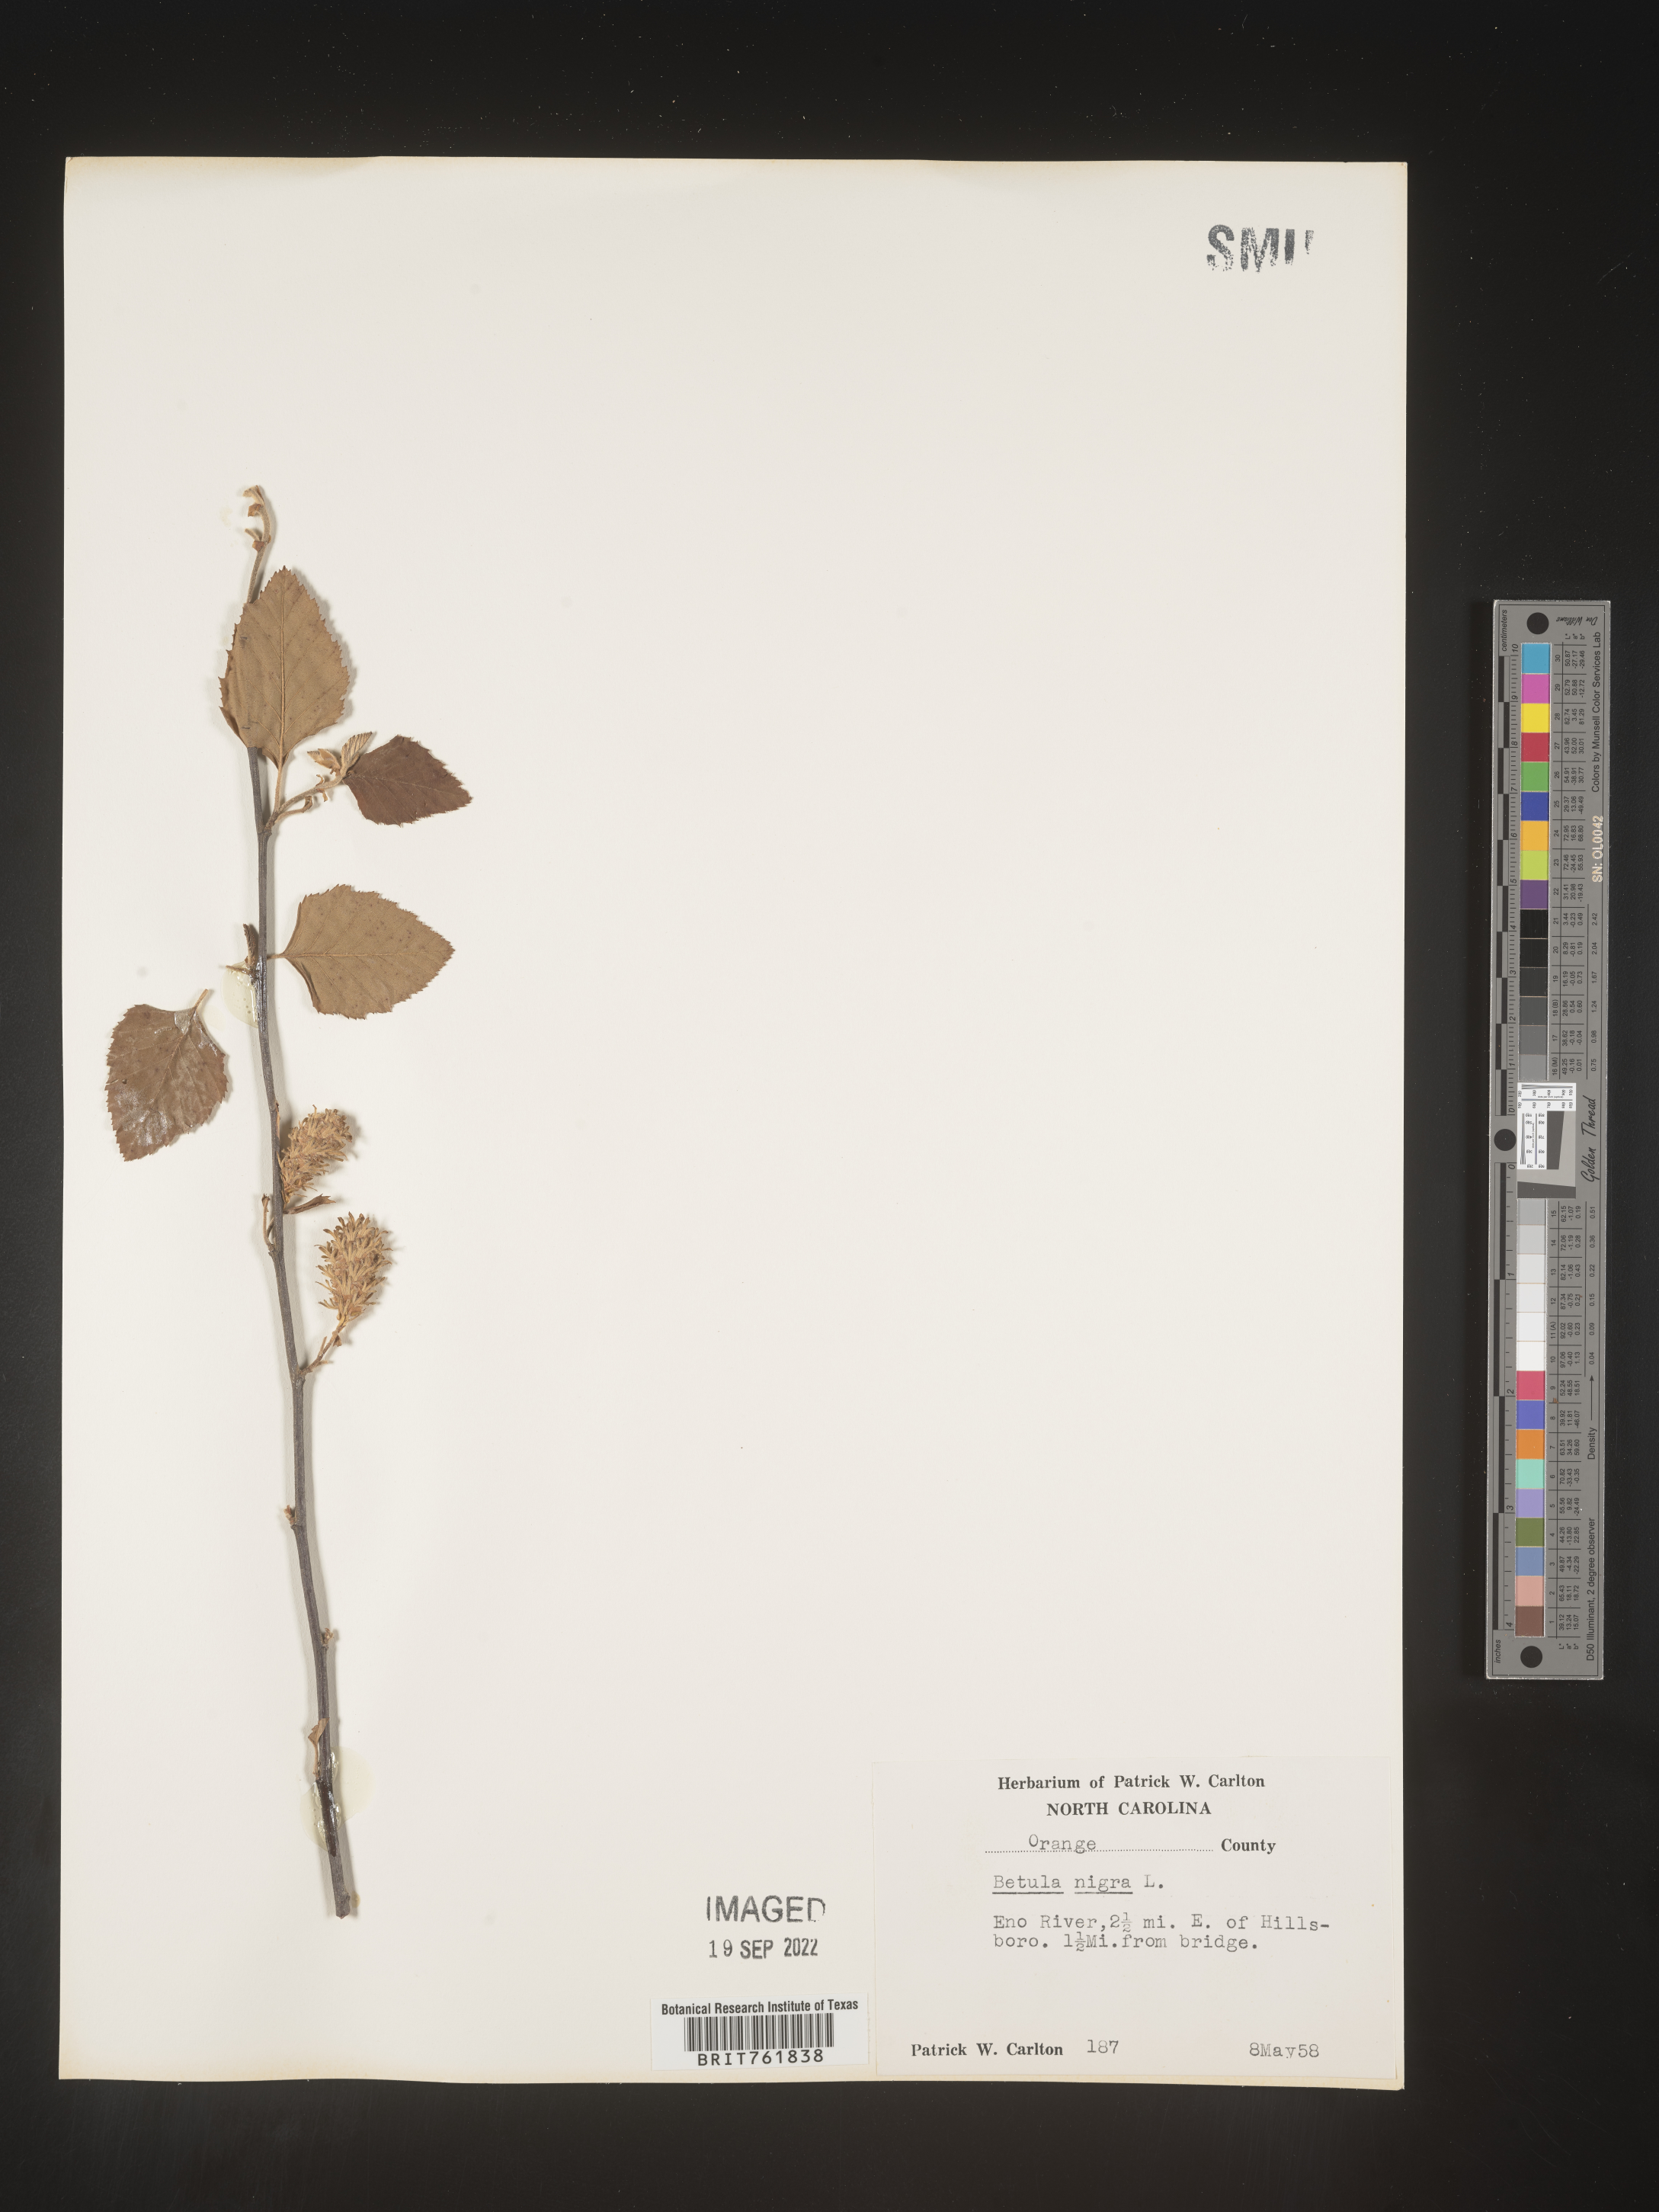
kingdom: Plantae
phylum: Tracheophyta
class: Magnoliopsida
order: Fagales
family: Betulaceae
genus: Betula
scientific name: Betula nigra
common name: Black birch
